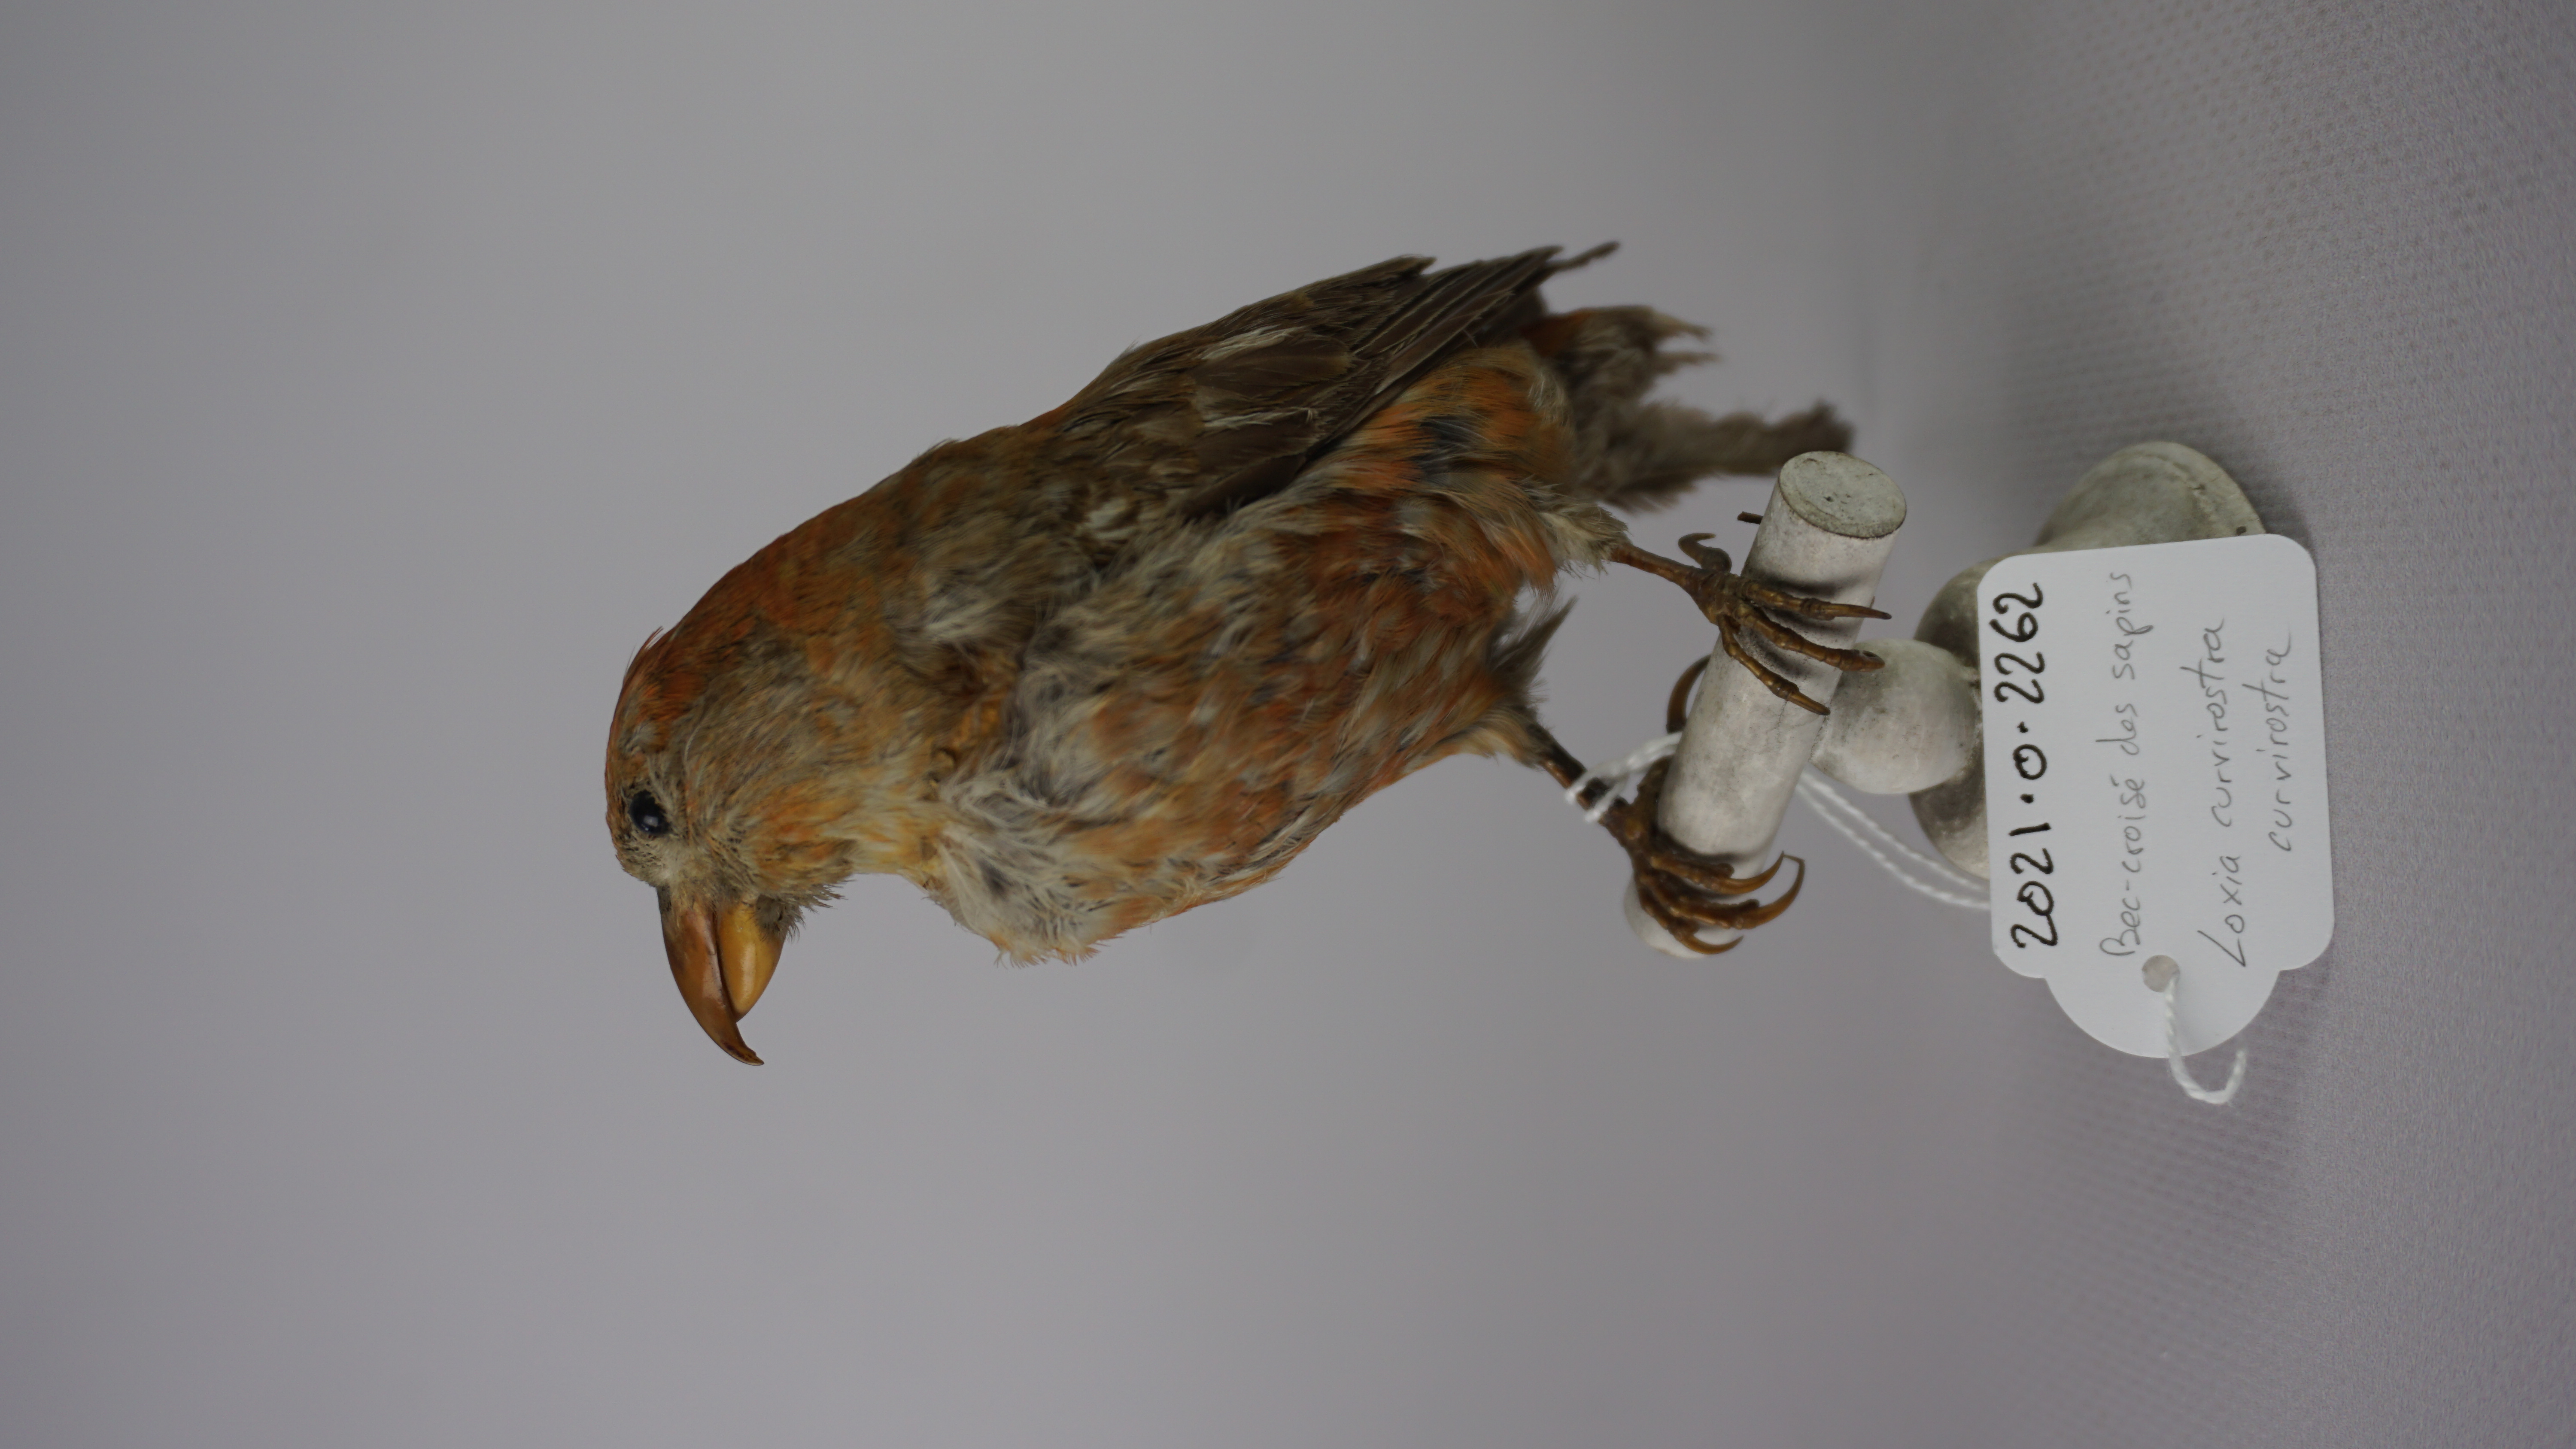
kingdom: Animalia
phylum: Chordata
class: Aves
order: Passeriformes
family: Fringillidae
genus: Loxia
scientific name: Loxia curvirostra
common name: Red crossbill
